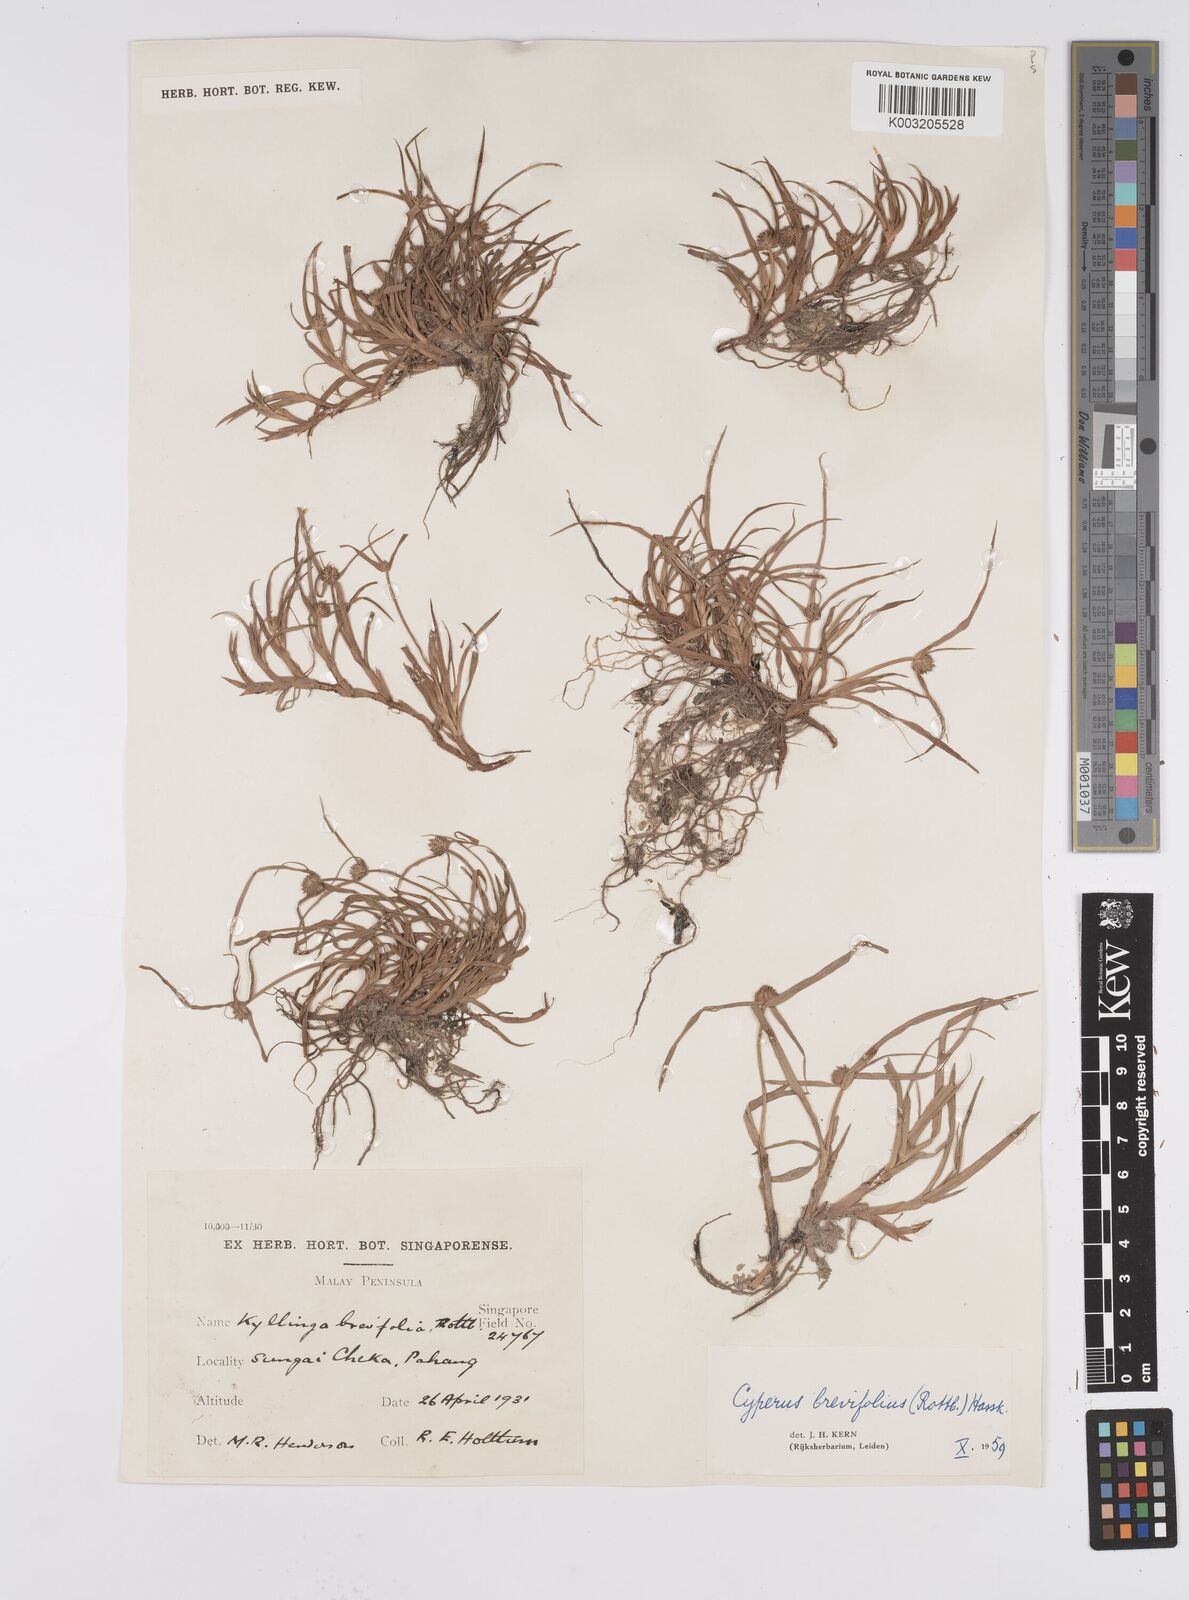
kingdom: Plantae
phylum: Tracheophyta
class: Liliopsida
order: Poales
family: Cyperaceae
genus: Cyperus
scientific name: Cyperus
